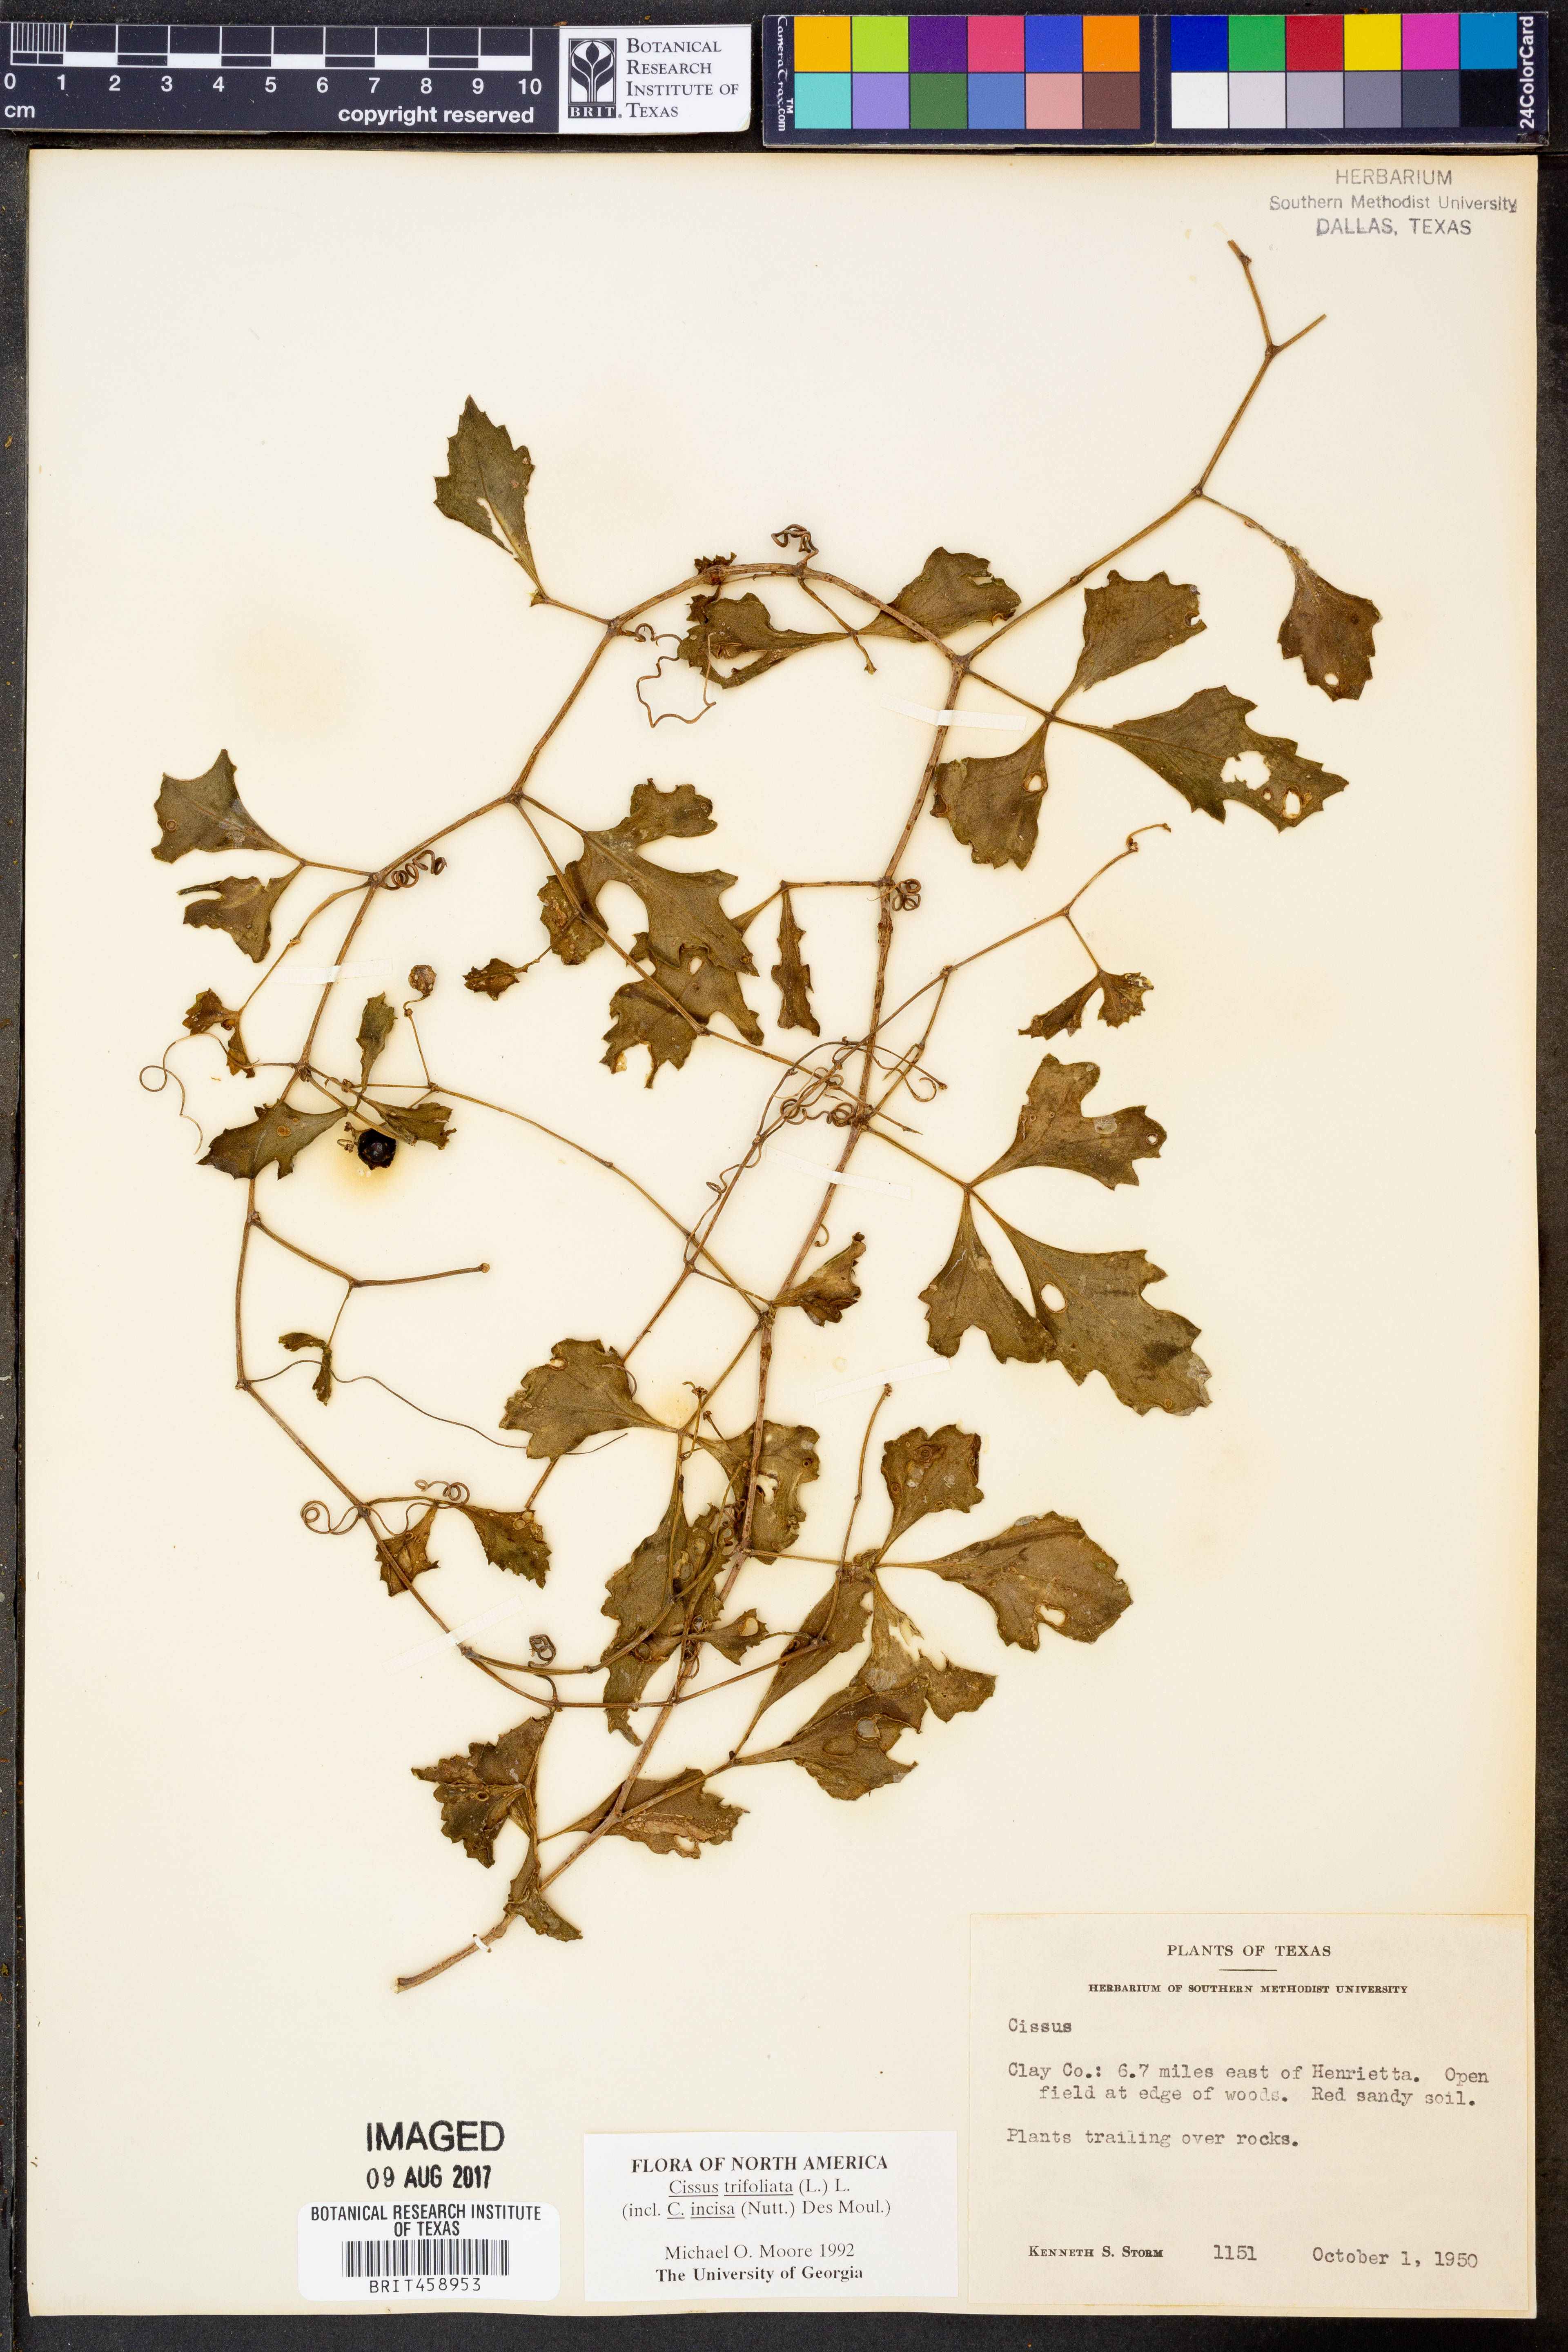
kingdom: Plantae
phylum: Tracheophyta
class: Magnoliopsida
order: Vitales
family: Vitaceae
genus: Cissus
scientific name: Cissus trifoliata
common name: Vine-sorrel
